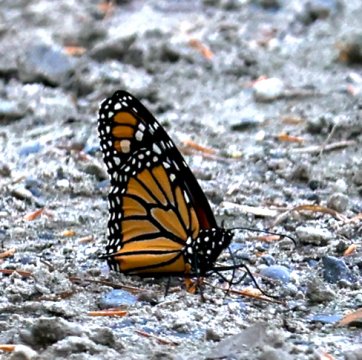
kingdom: Animalia
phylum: Arthropoda
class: Insecta
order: Lepidoptera
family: Nymphalidae
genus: Danaus
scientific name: Danaus plexippus
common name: Monarch
